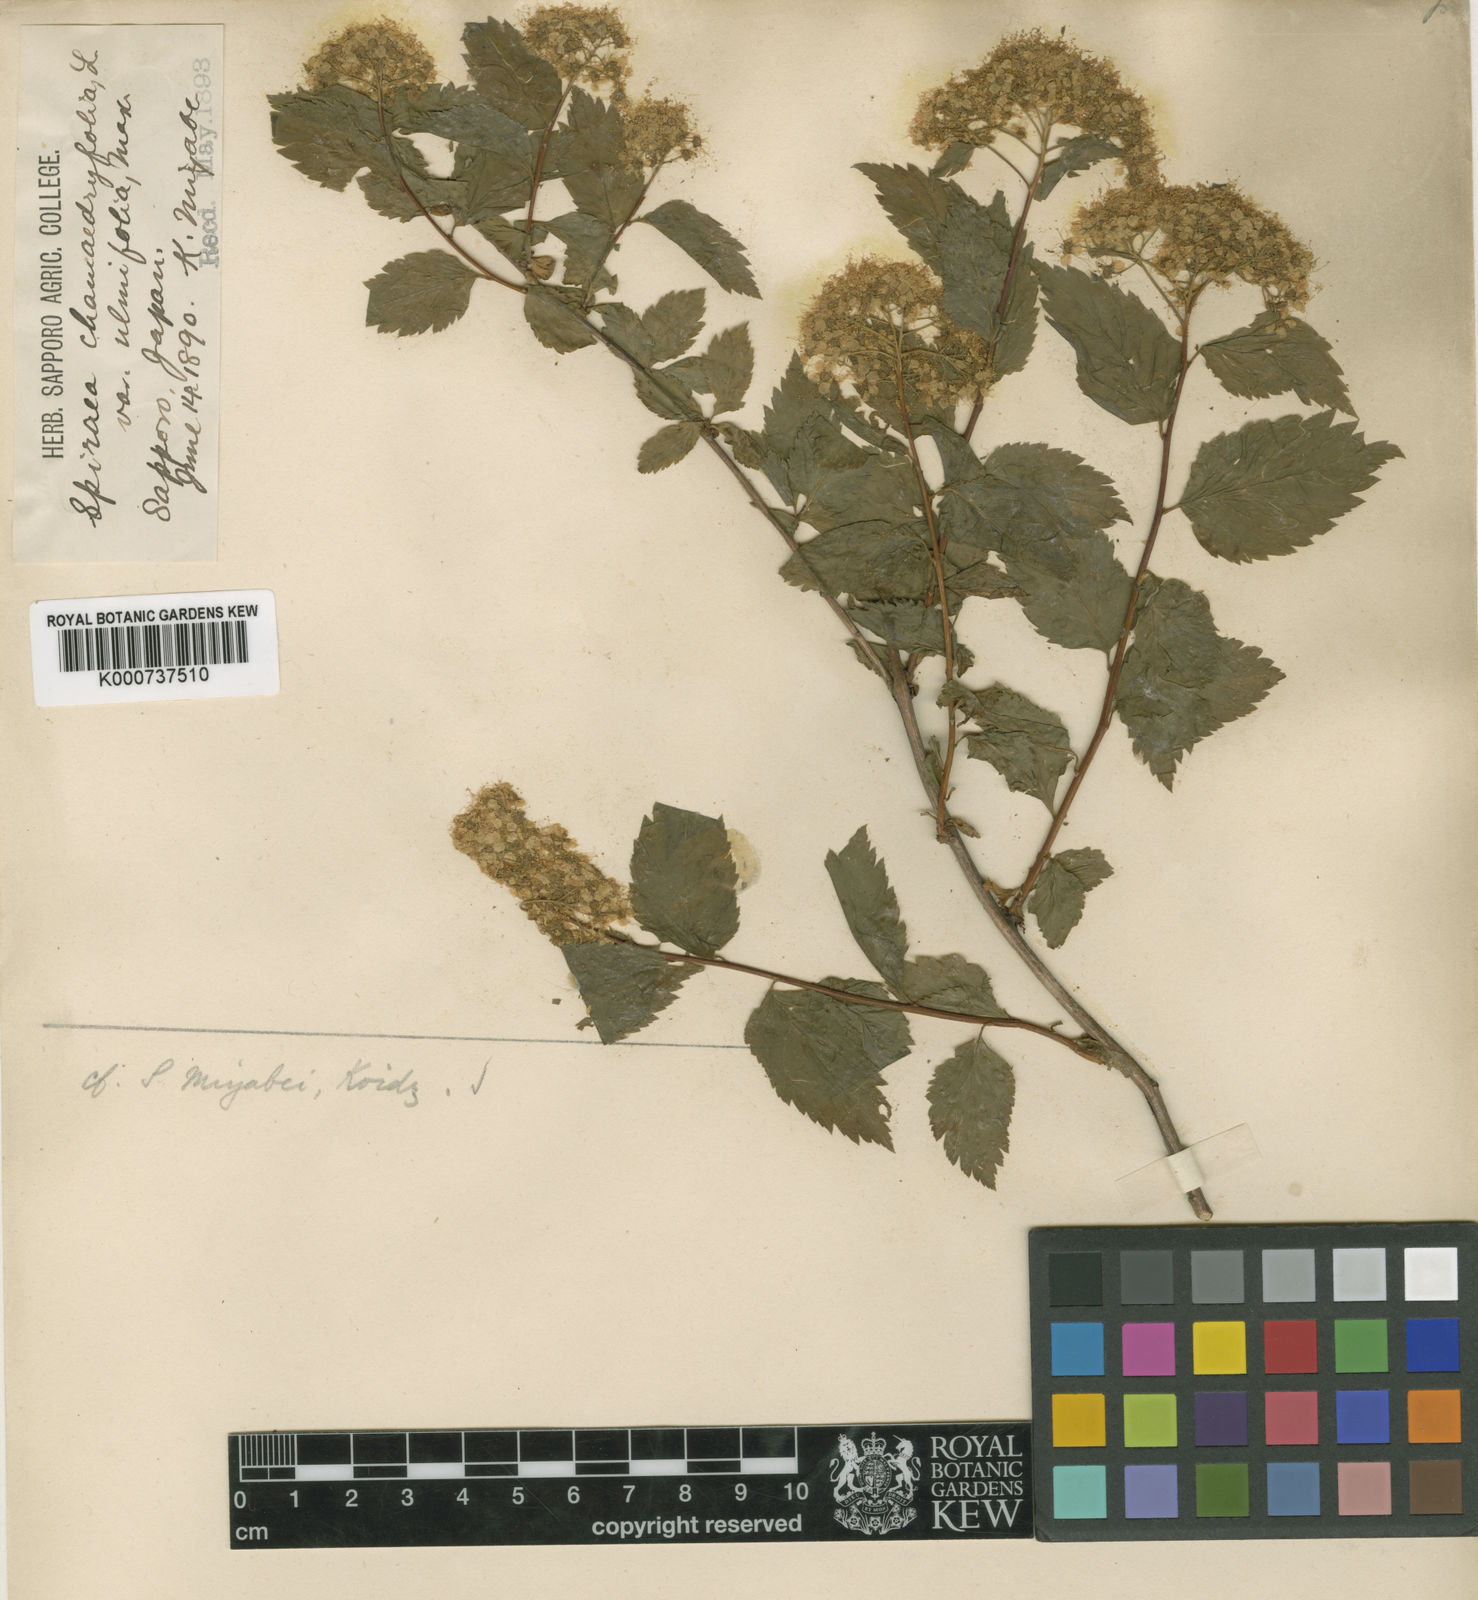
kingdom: Plantae
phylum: Tracheophyta
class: Magnoliopsida
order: Rosales
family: Rosaceae
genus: Spiraea
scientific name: Spiraea miyabei
